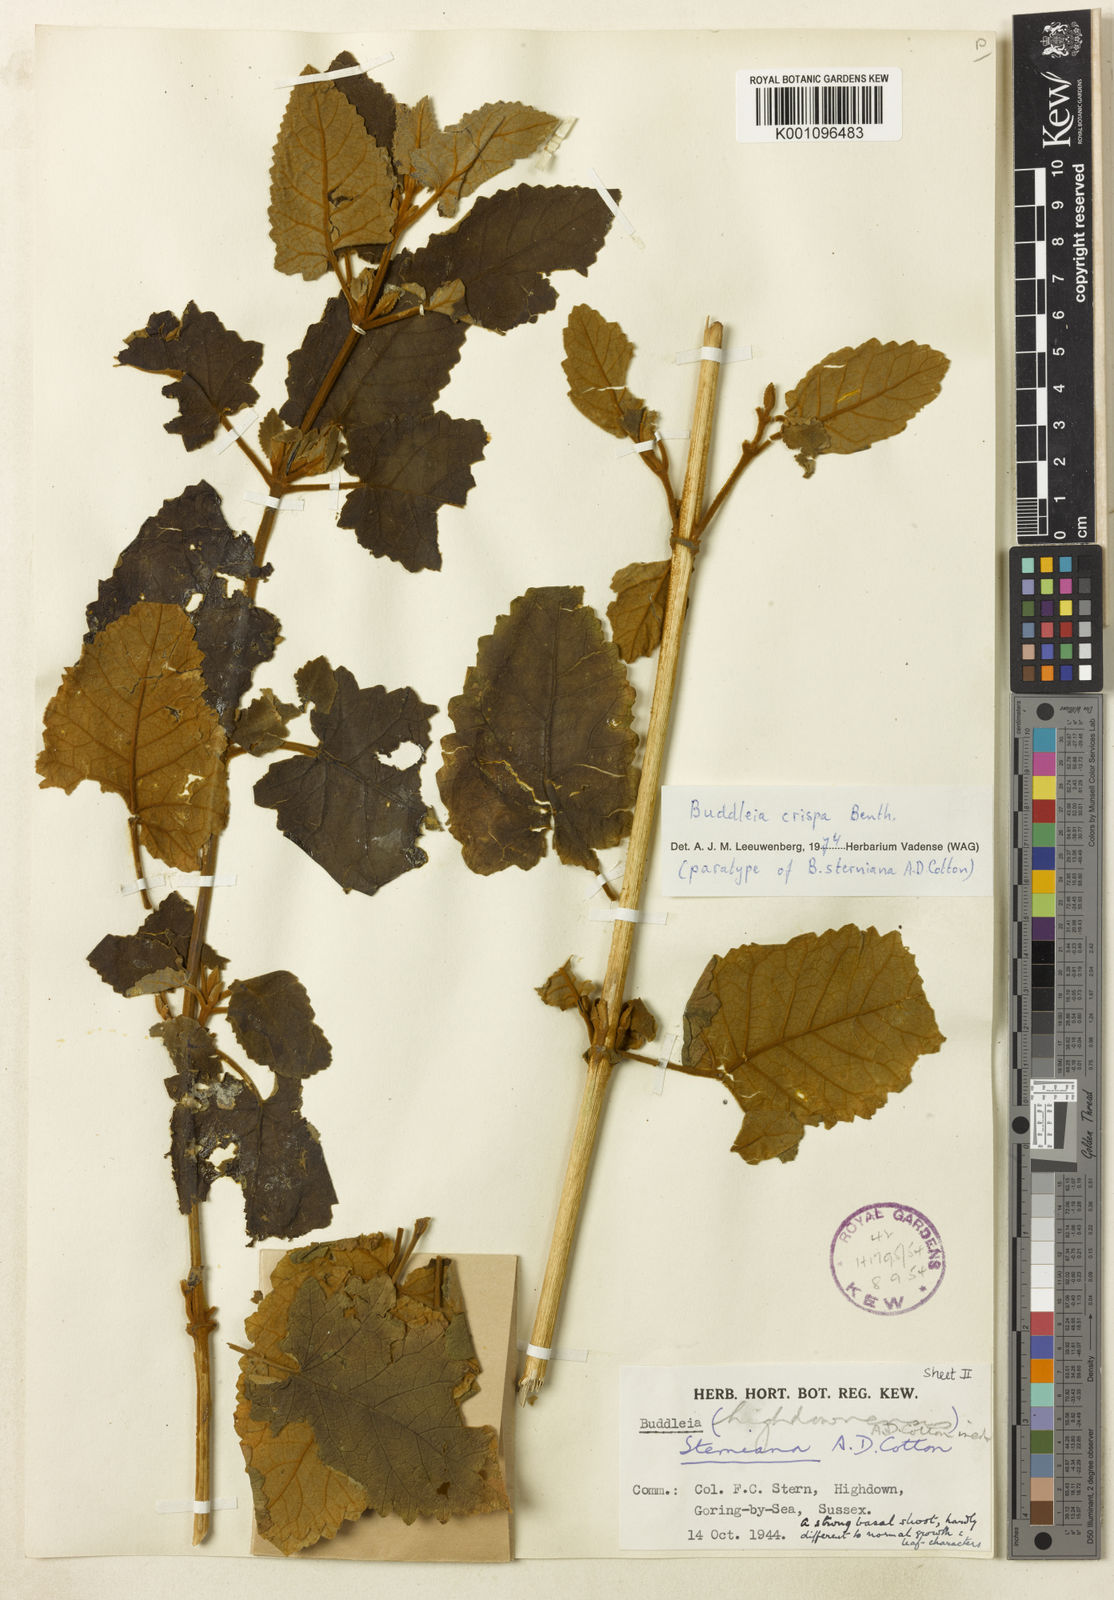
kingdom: Plantae
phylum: Tracheophyta
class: Magnoliopsida
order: Lamiales
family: Scrophulariaceae
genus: Buddleja
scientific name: Buddleja crispa
